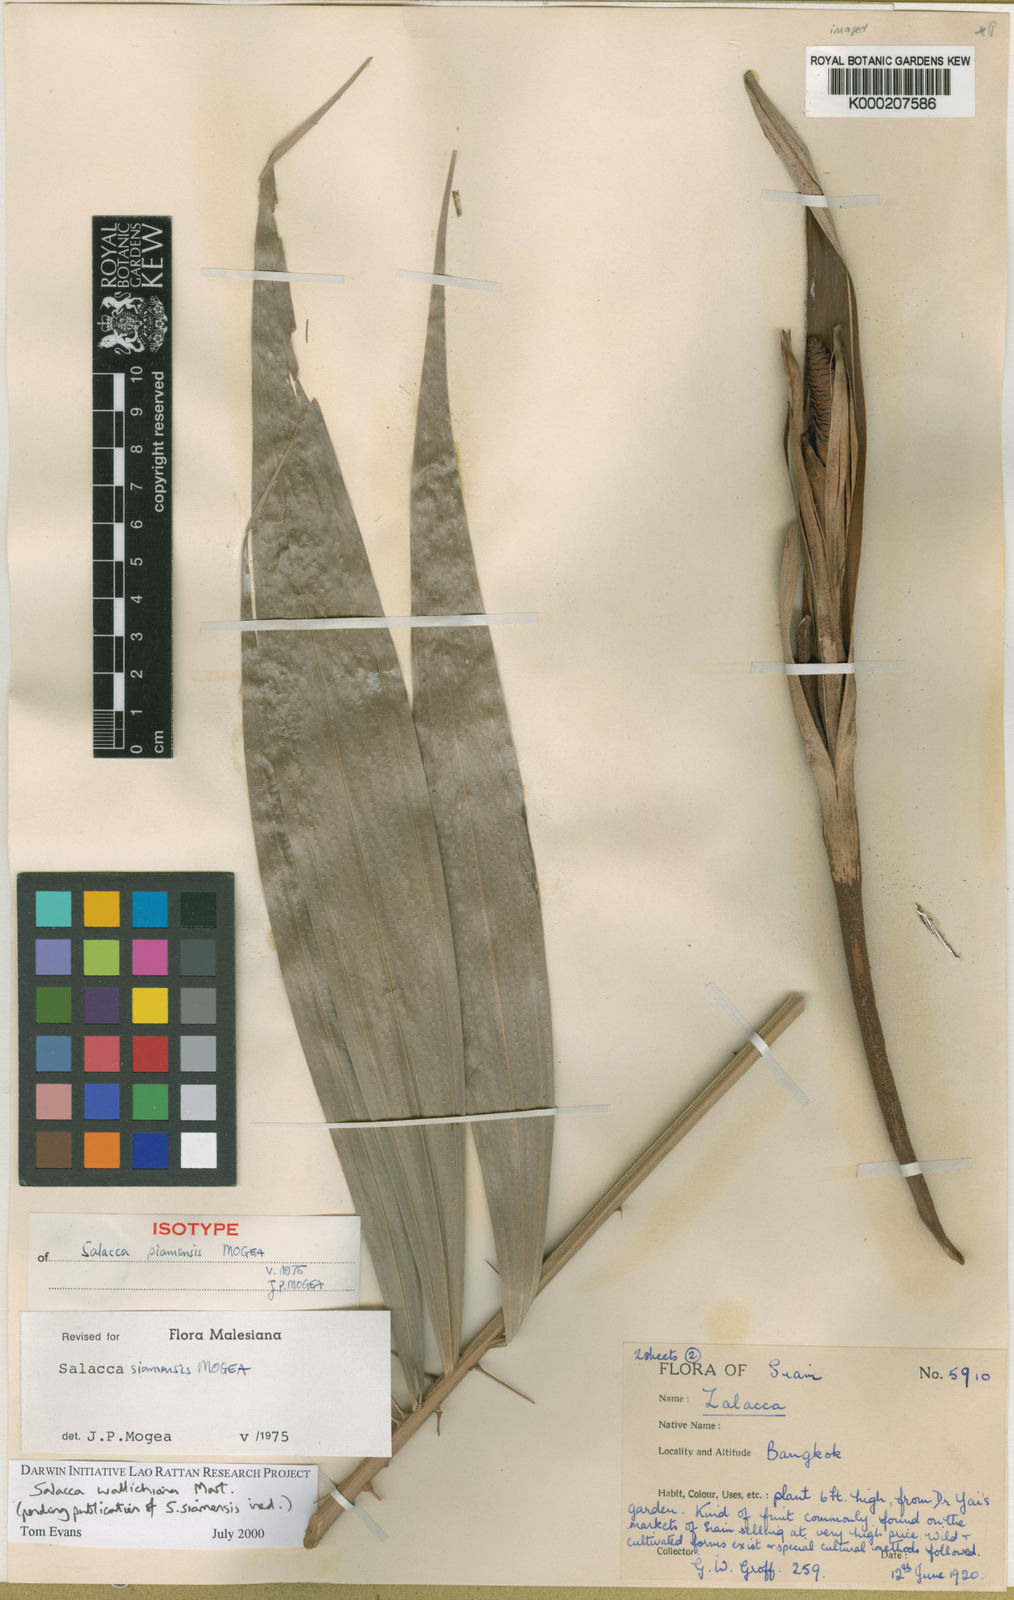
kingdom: Plantae
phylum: Tracheophyta
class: Liliopsida
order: Arecales
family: Arecaceae
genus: Salacca
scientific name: Salacca wallichiana
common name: Rakum palm
